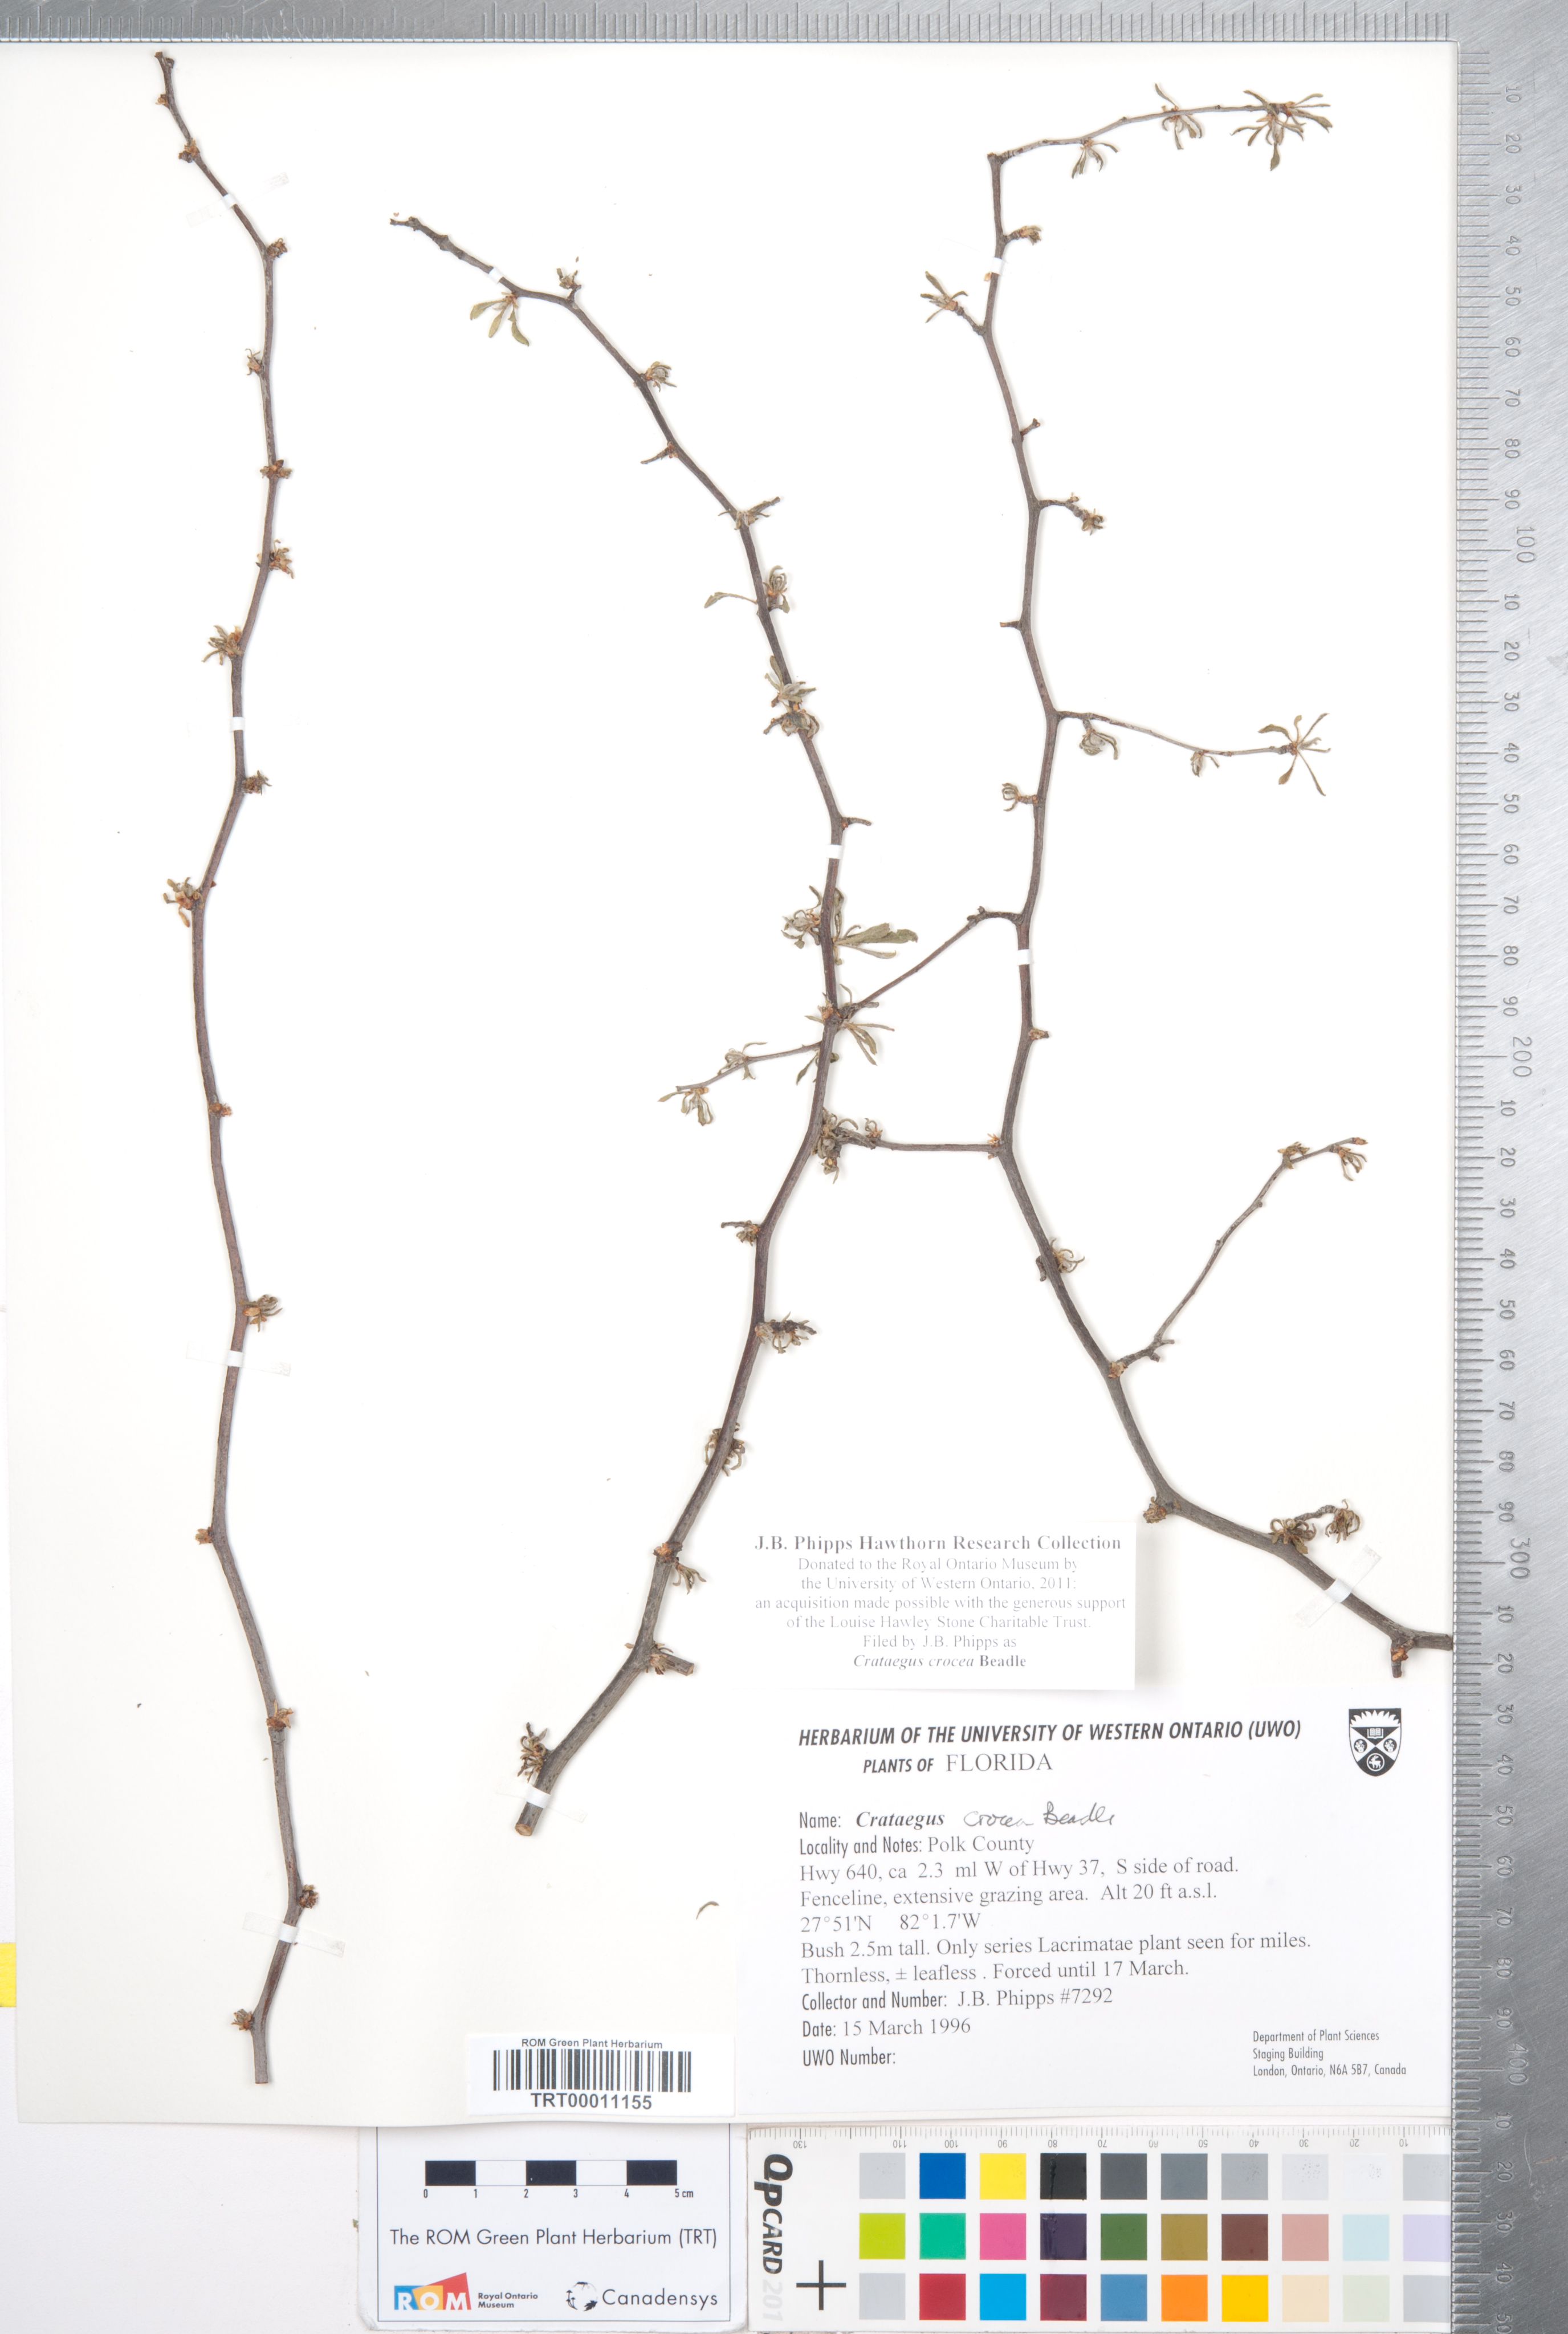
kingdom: Plantae
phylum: Tracheophyta
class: Magnoliopsida
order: Rosales
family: Rosaceae
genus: Crataegus
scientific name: Crataegus lassa
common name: Florida hawthorn
